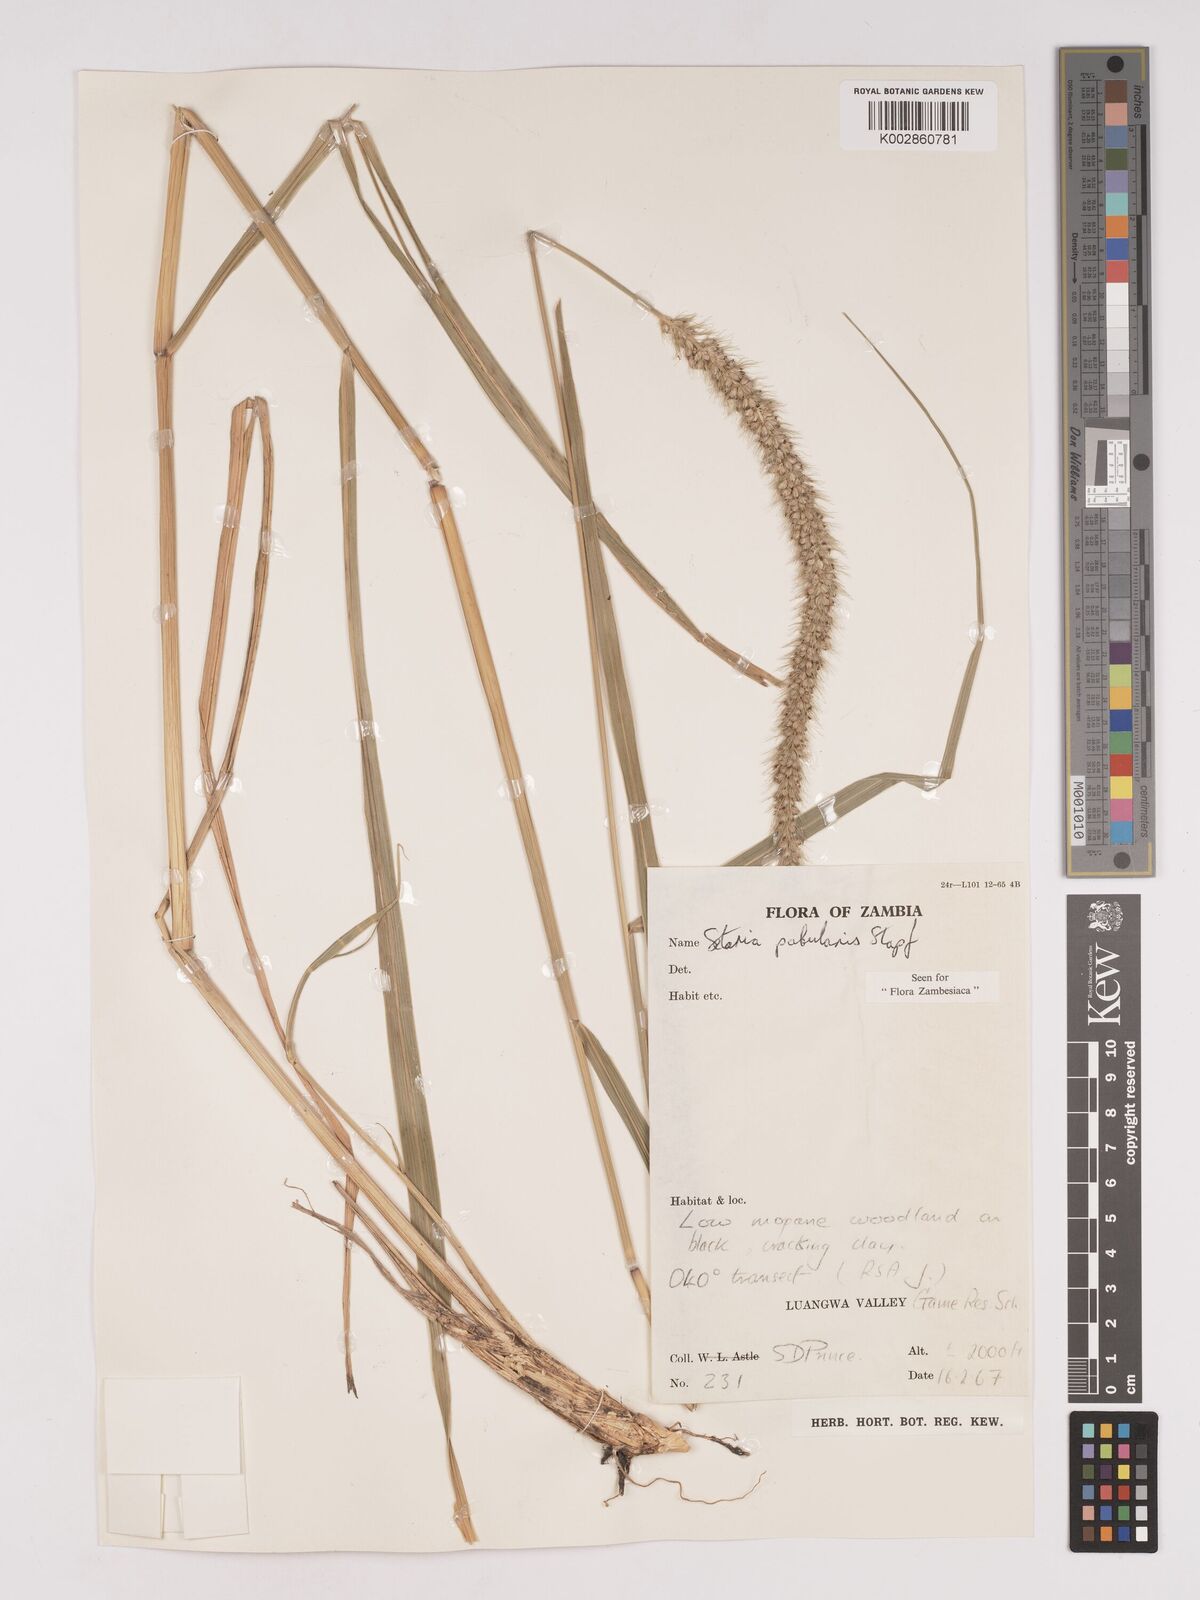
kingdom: Plantae
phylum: Tracheophyta
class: Liliopsida
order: Poales
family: Poaceae
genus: Setaria
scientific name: Setaria incrassata
